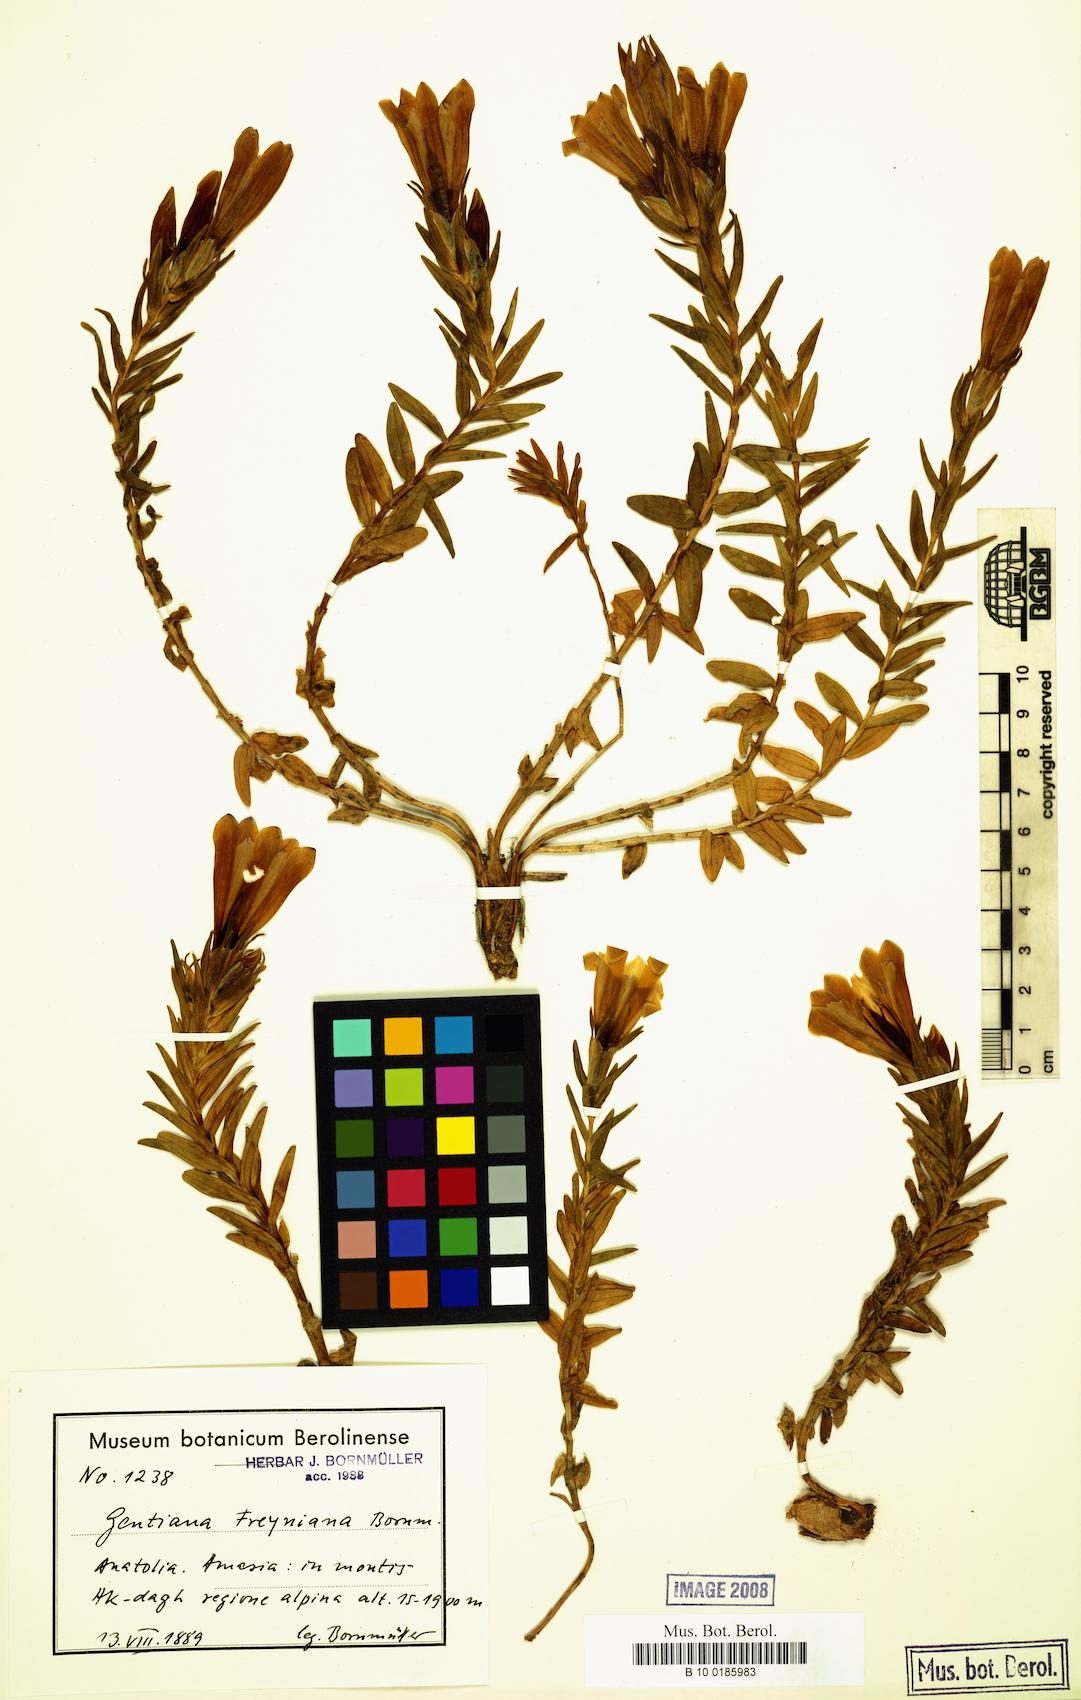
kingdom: Plantae
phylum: Tracheophyta
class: Magnoliopsida
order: Gentianales
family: Gentianaceae
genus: Gentiana
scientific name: Gentiana septemfida
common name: Crested gentian
